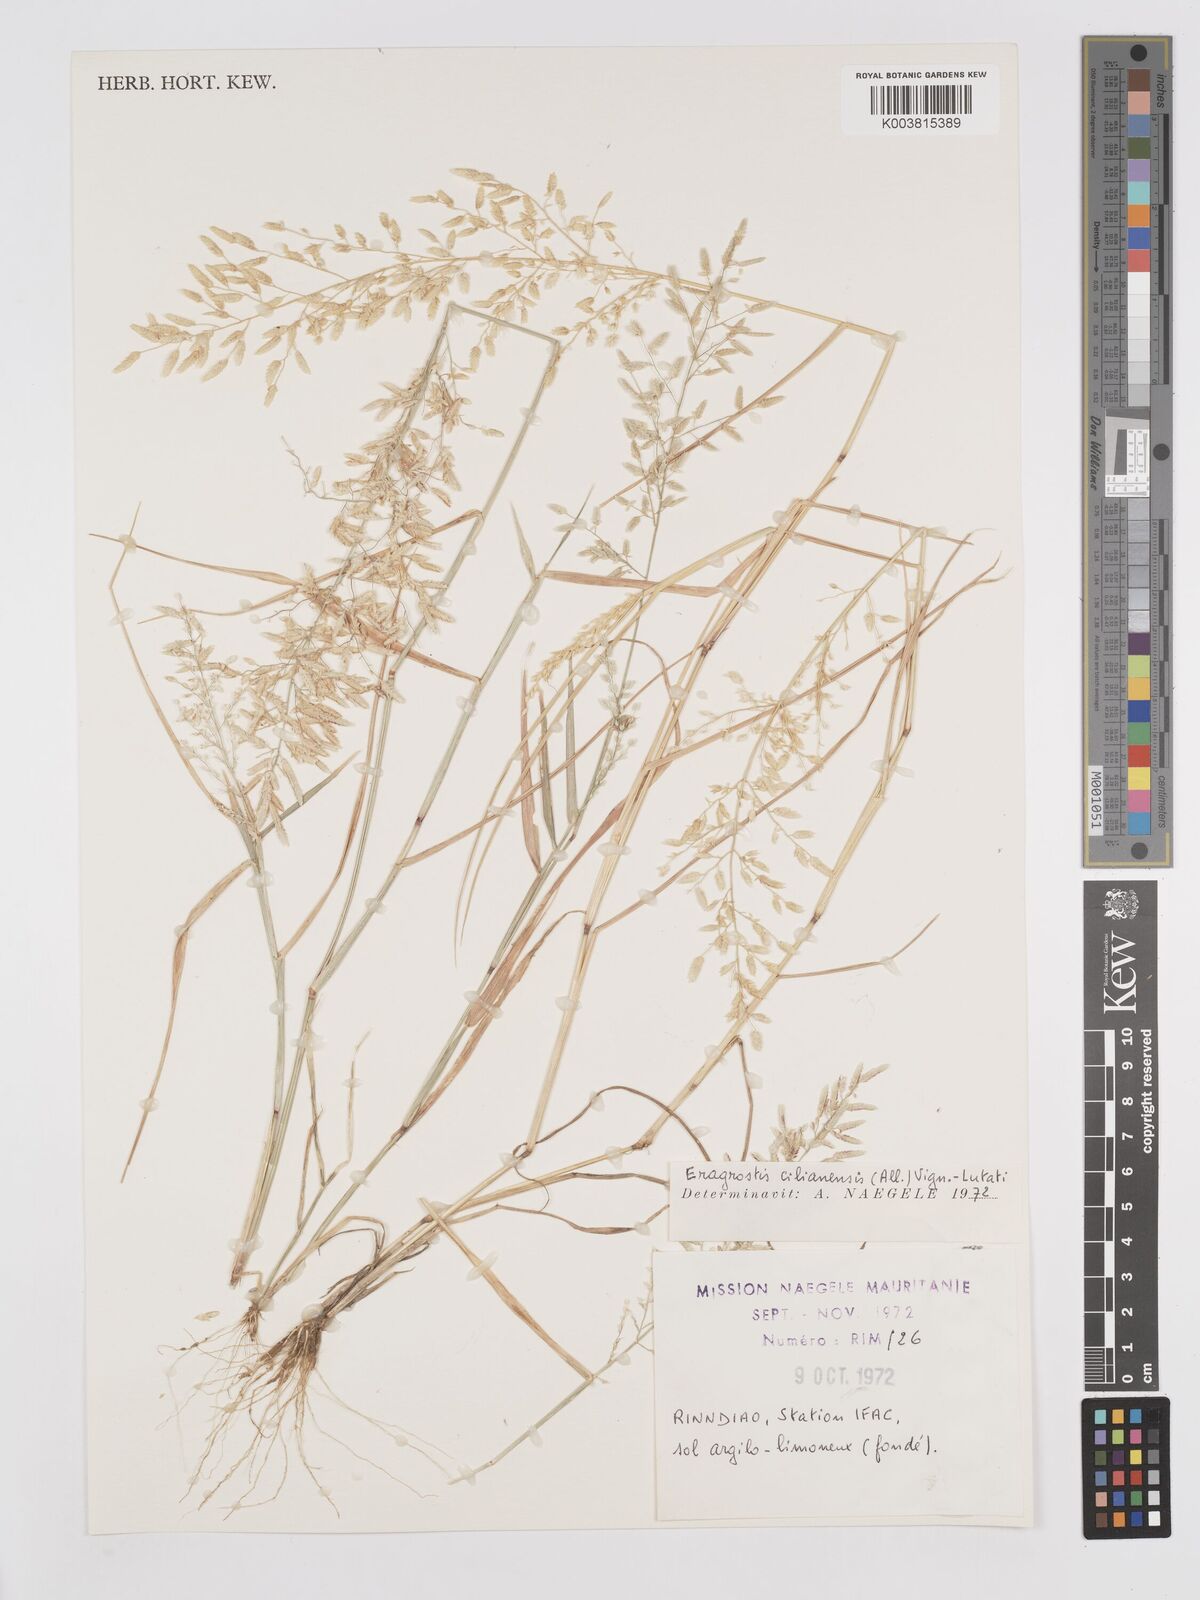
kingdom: Plantae
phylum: Tracheophyta
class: Liliopsida
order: Poales
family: Poaceae
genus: Eragrostis
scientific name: Eragrostis cilianensis
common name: Stinkgrass
